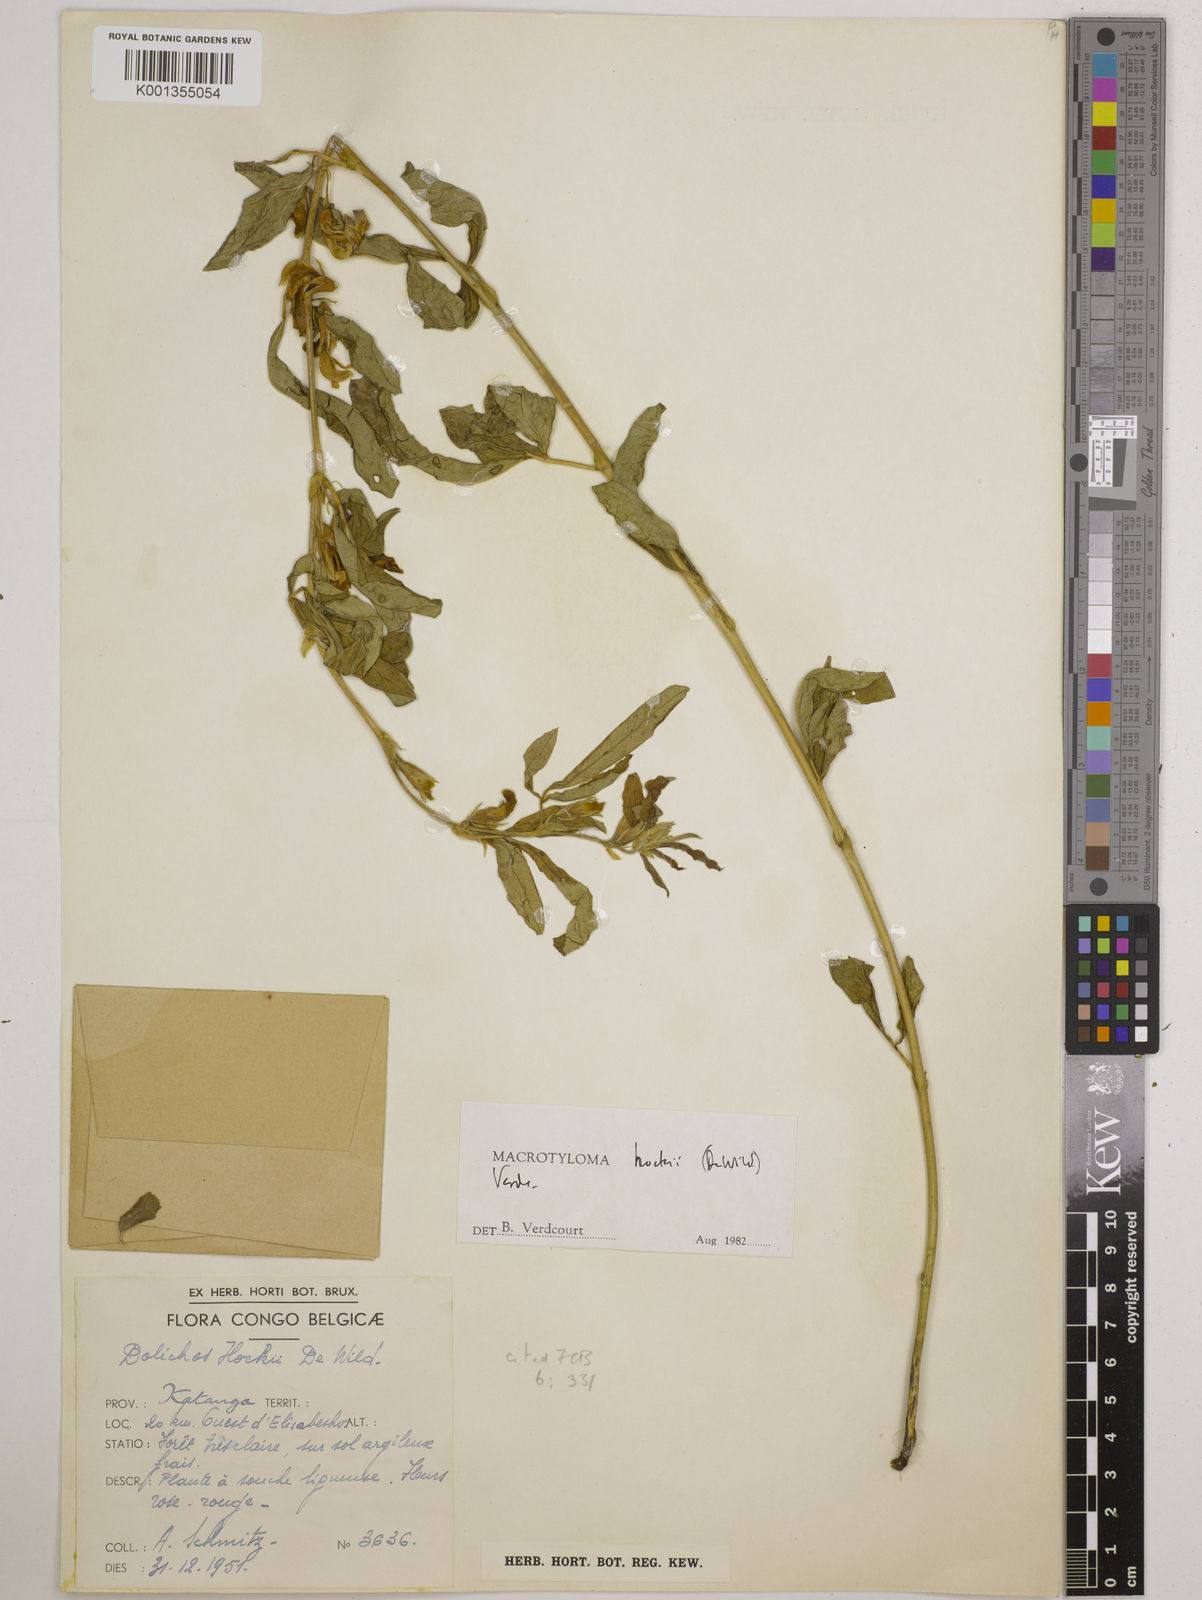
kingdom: Plantae
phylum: Tracheophyta
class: Magnoliopsida
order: Fabales
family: Fabaceae
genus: Macrotyloma
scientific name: Macrotyloma hockii
